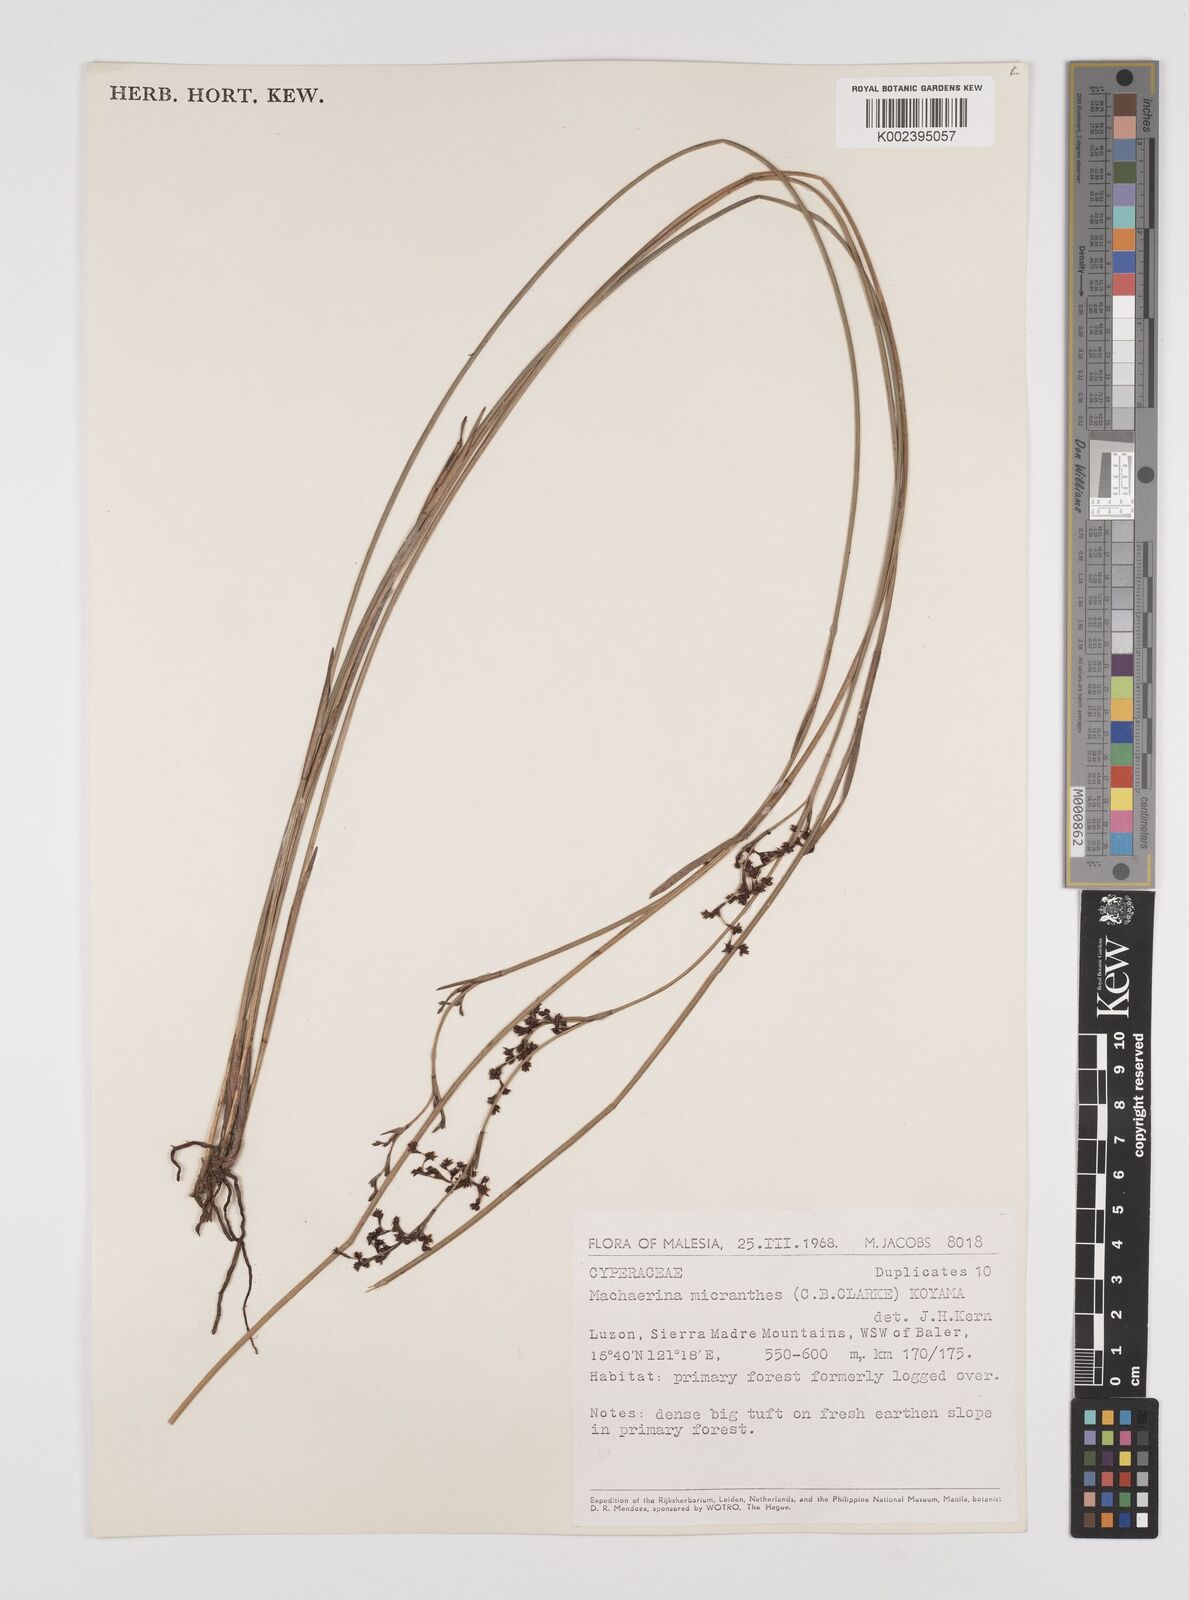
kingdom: Plantae
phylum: Tracheophyta
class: Liliopsida
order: Poales
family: Cyperaceae
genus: Machaerina
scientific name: Machaerina disticha
